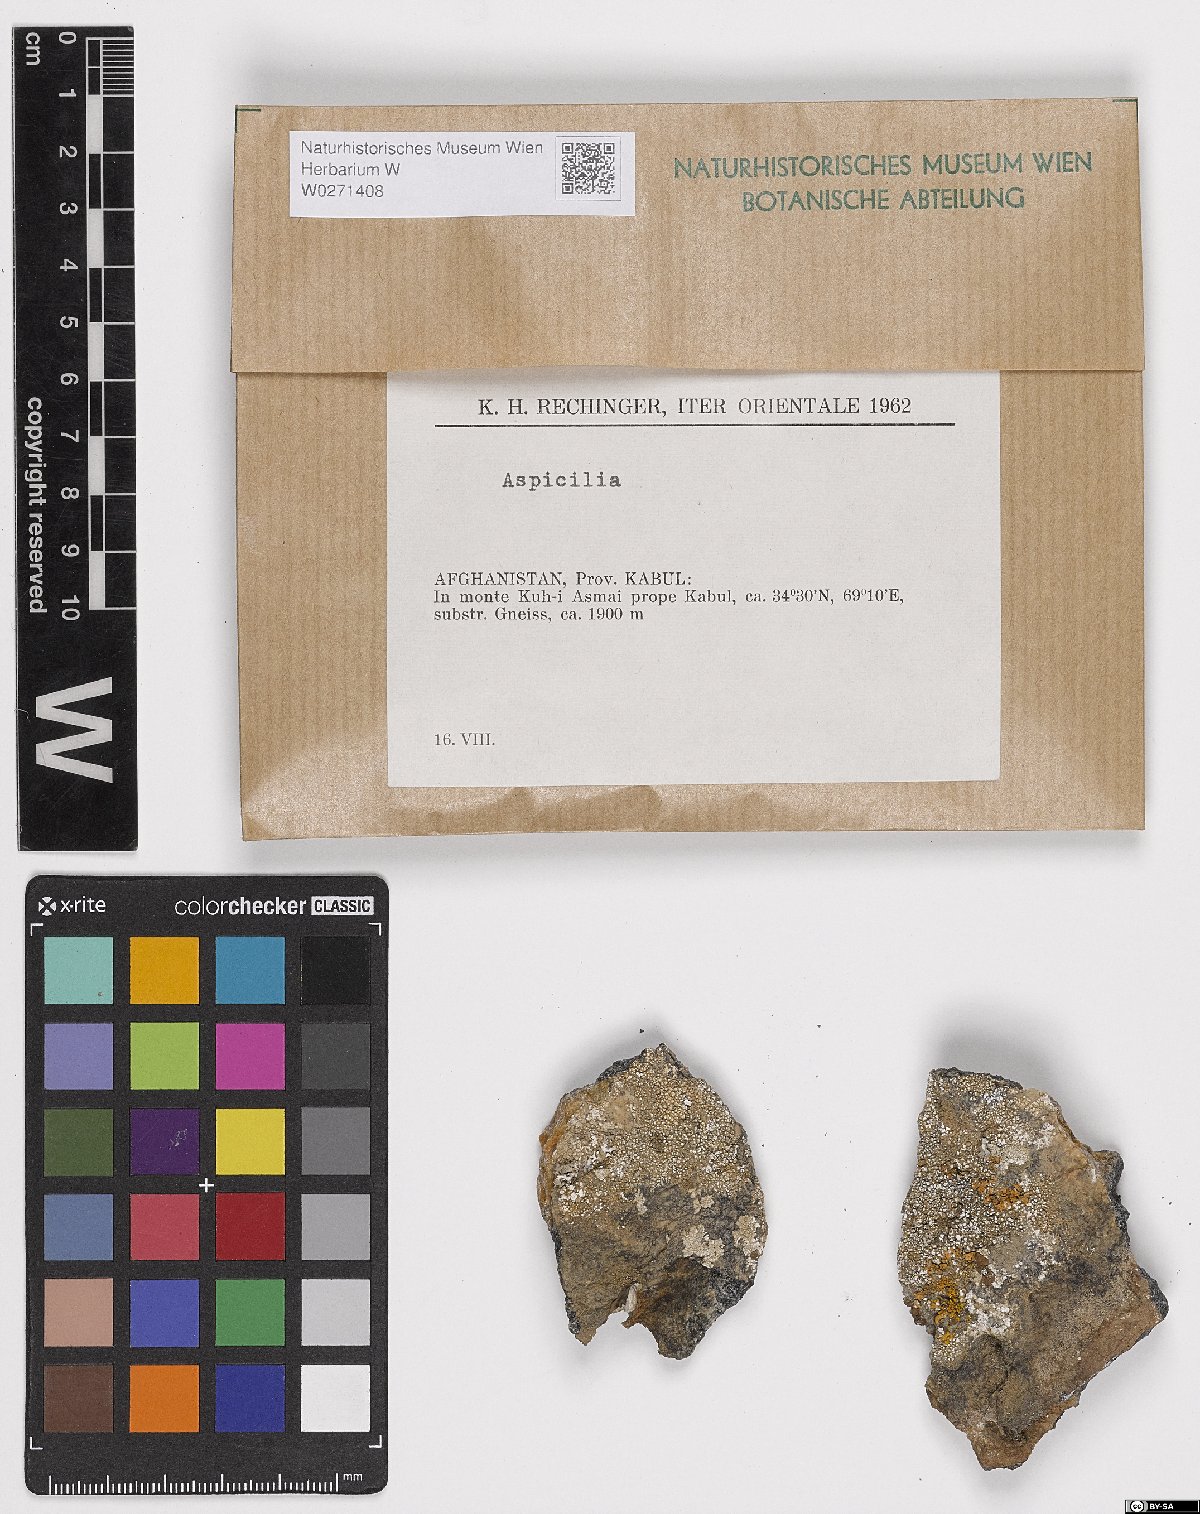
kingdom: Fungi
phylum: Ascomycota
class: Lecanoromycetes
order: Hymeneliales
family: Hymeneliaceae
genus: Aspicilia
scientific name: Aspicilia
